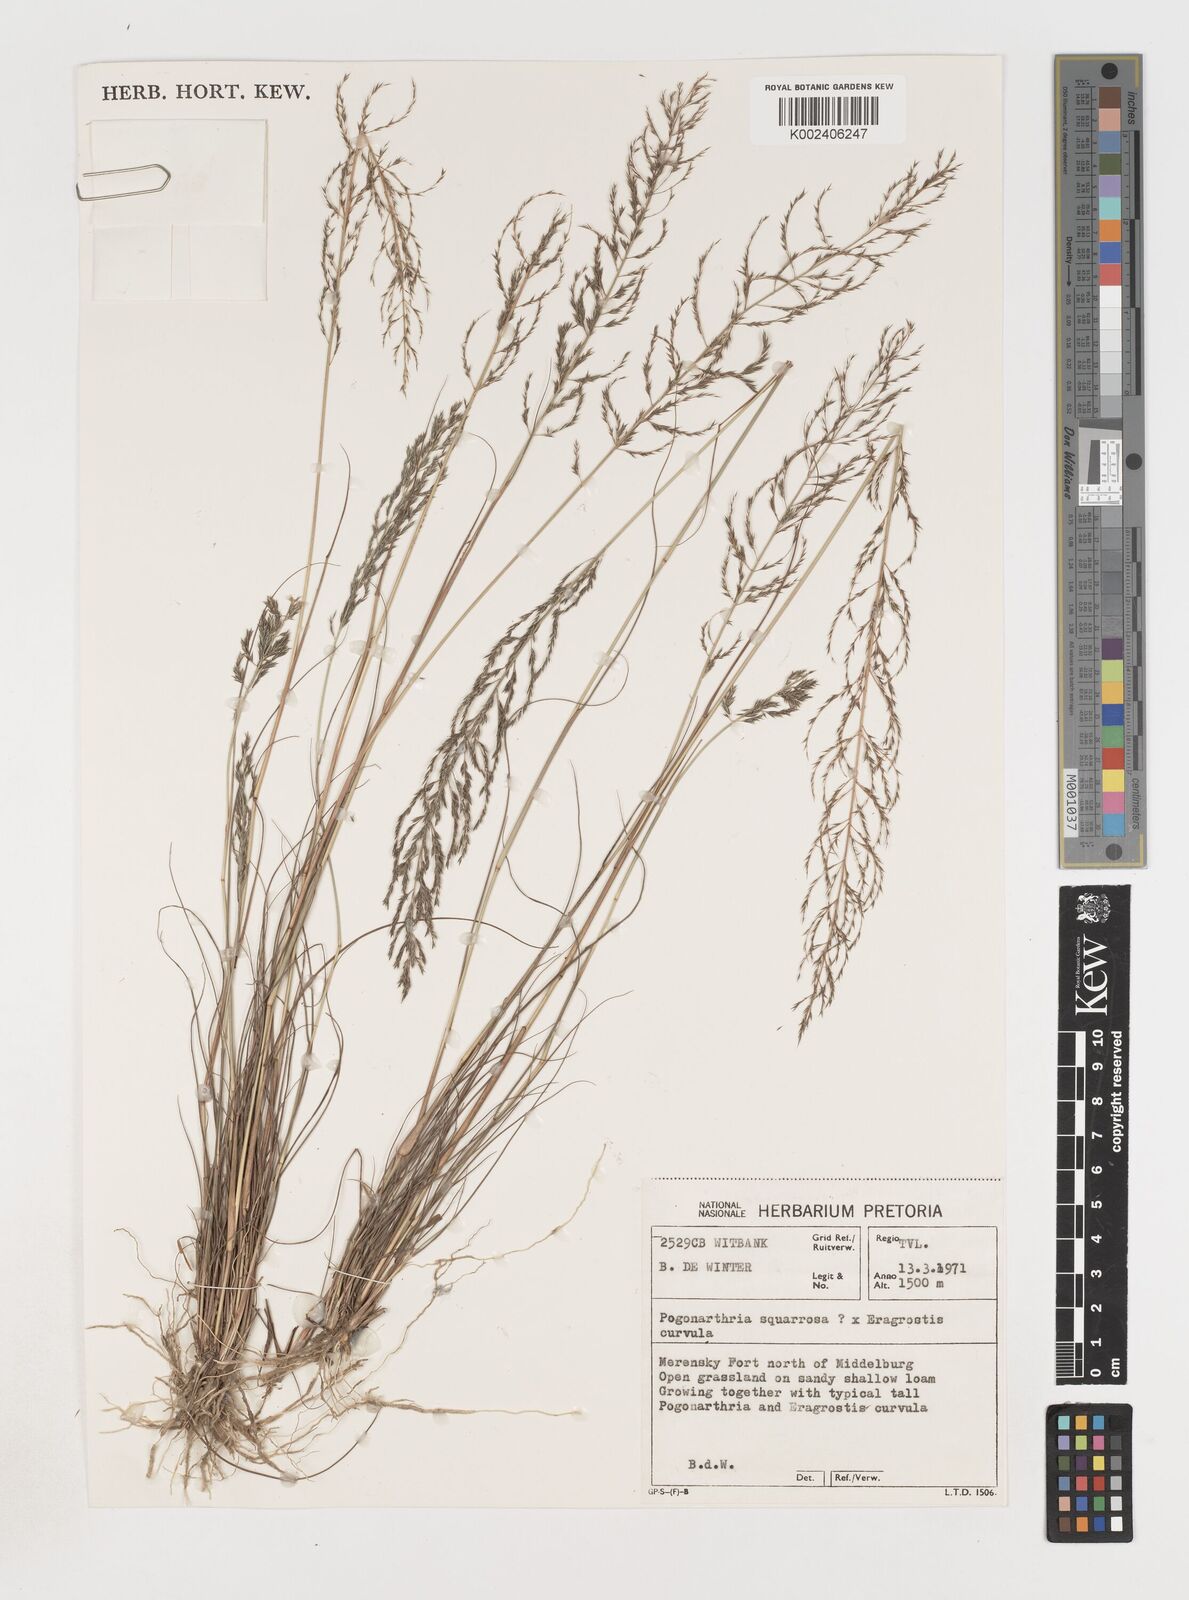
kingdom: Plantae
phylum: Tracheophyta
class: Liliopsida
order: Poales
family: Poaceae
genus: Pogonarthria
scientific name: Pogonarthria squarrosa
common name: Grass
